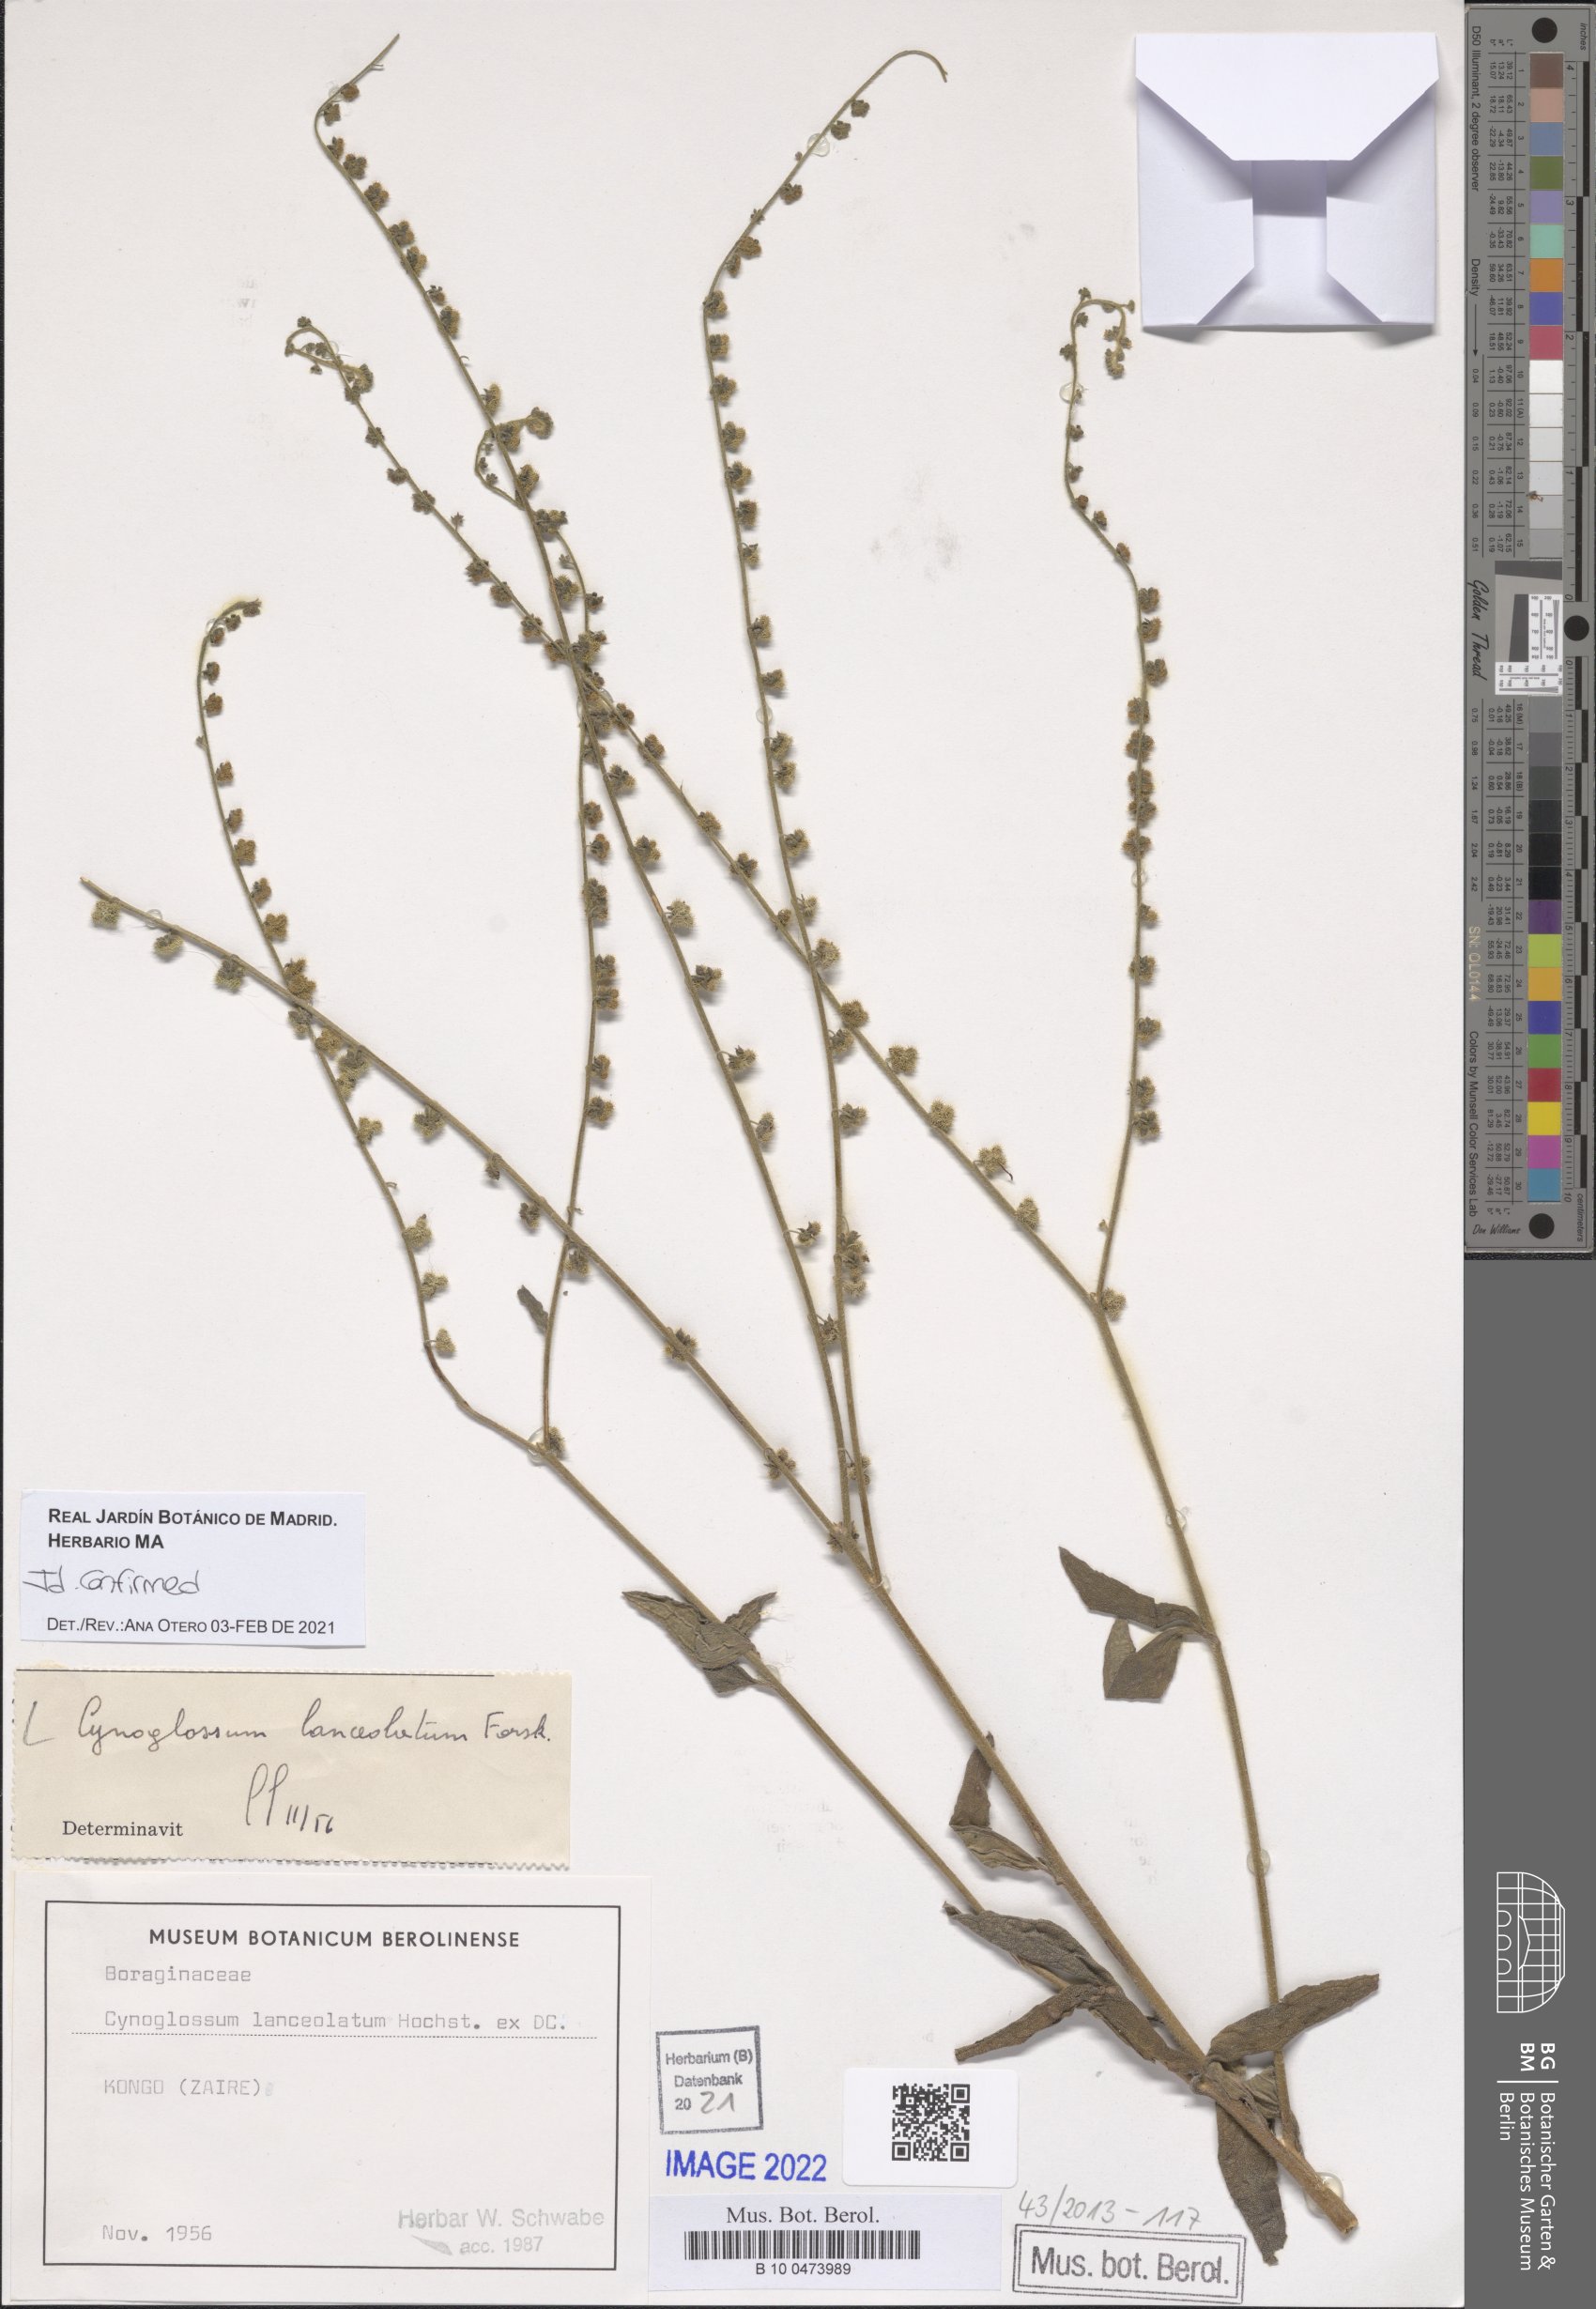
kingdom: Plantae
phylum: Tracheophyta
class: Magnoliopsida
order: Boraginales
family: Boraginaceae
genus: Paracynoglossum
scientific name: Paracynoglossum lanceolatum
